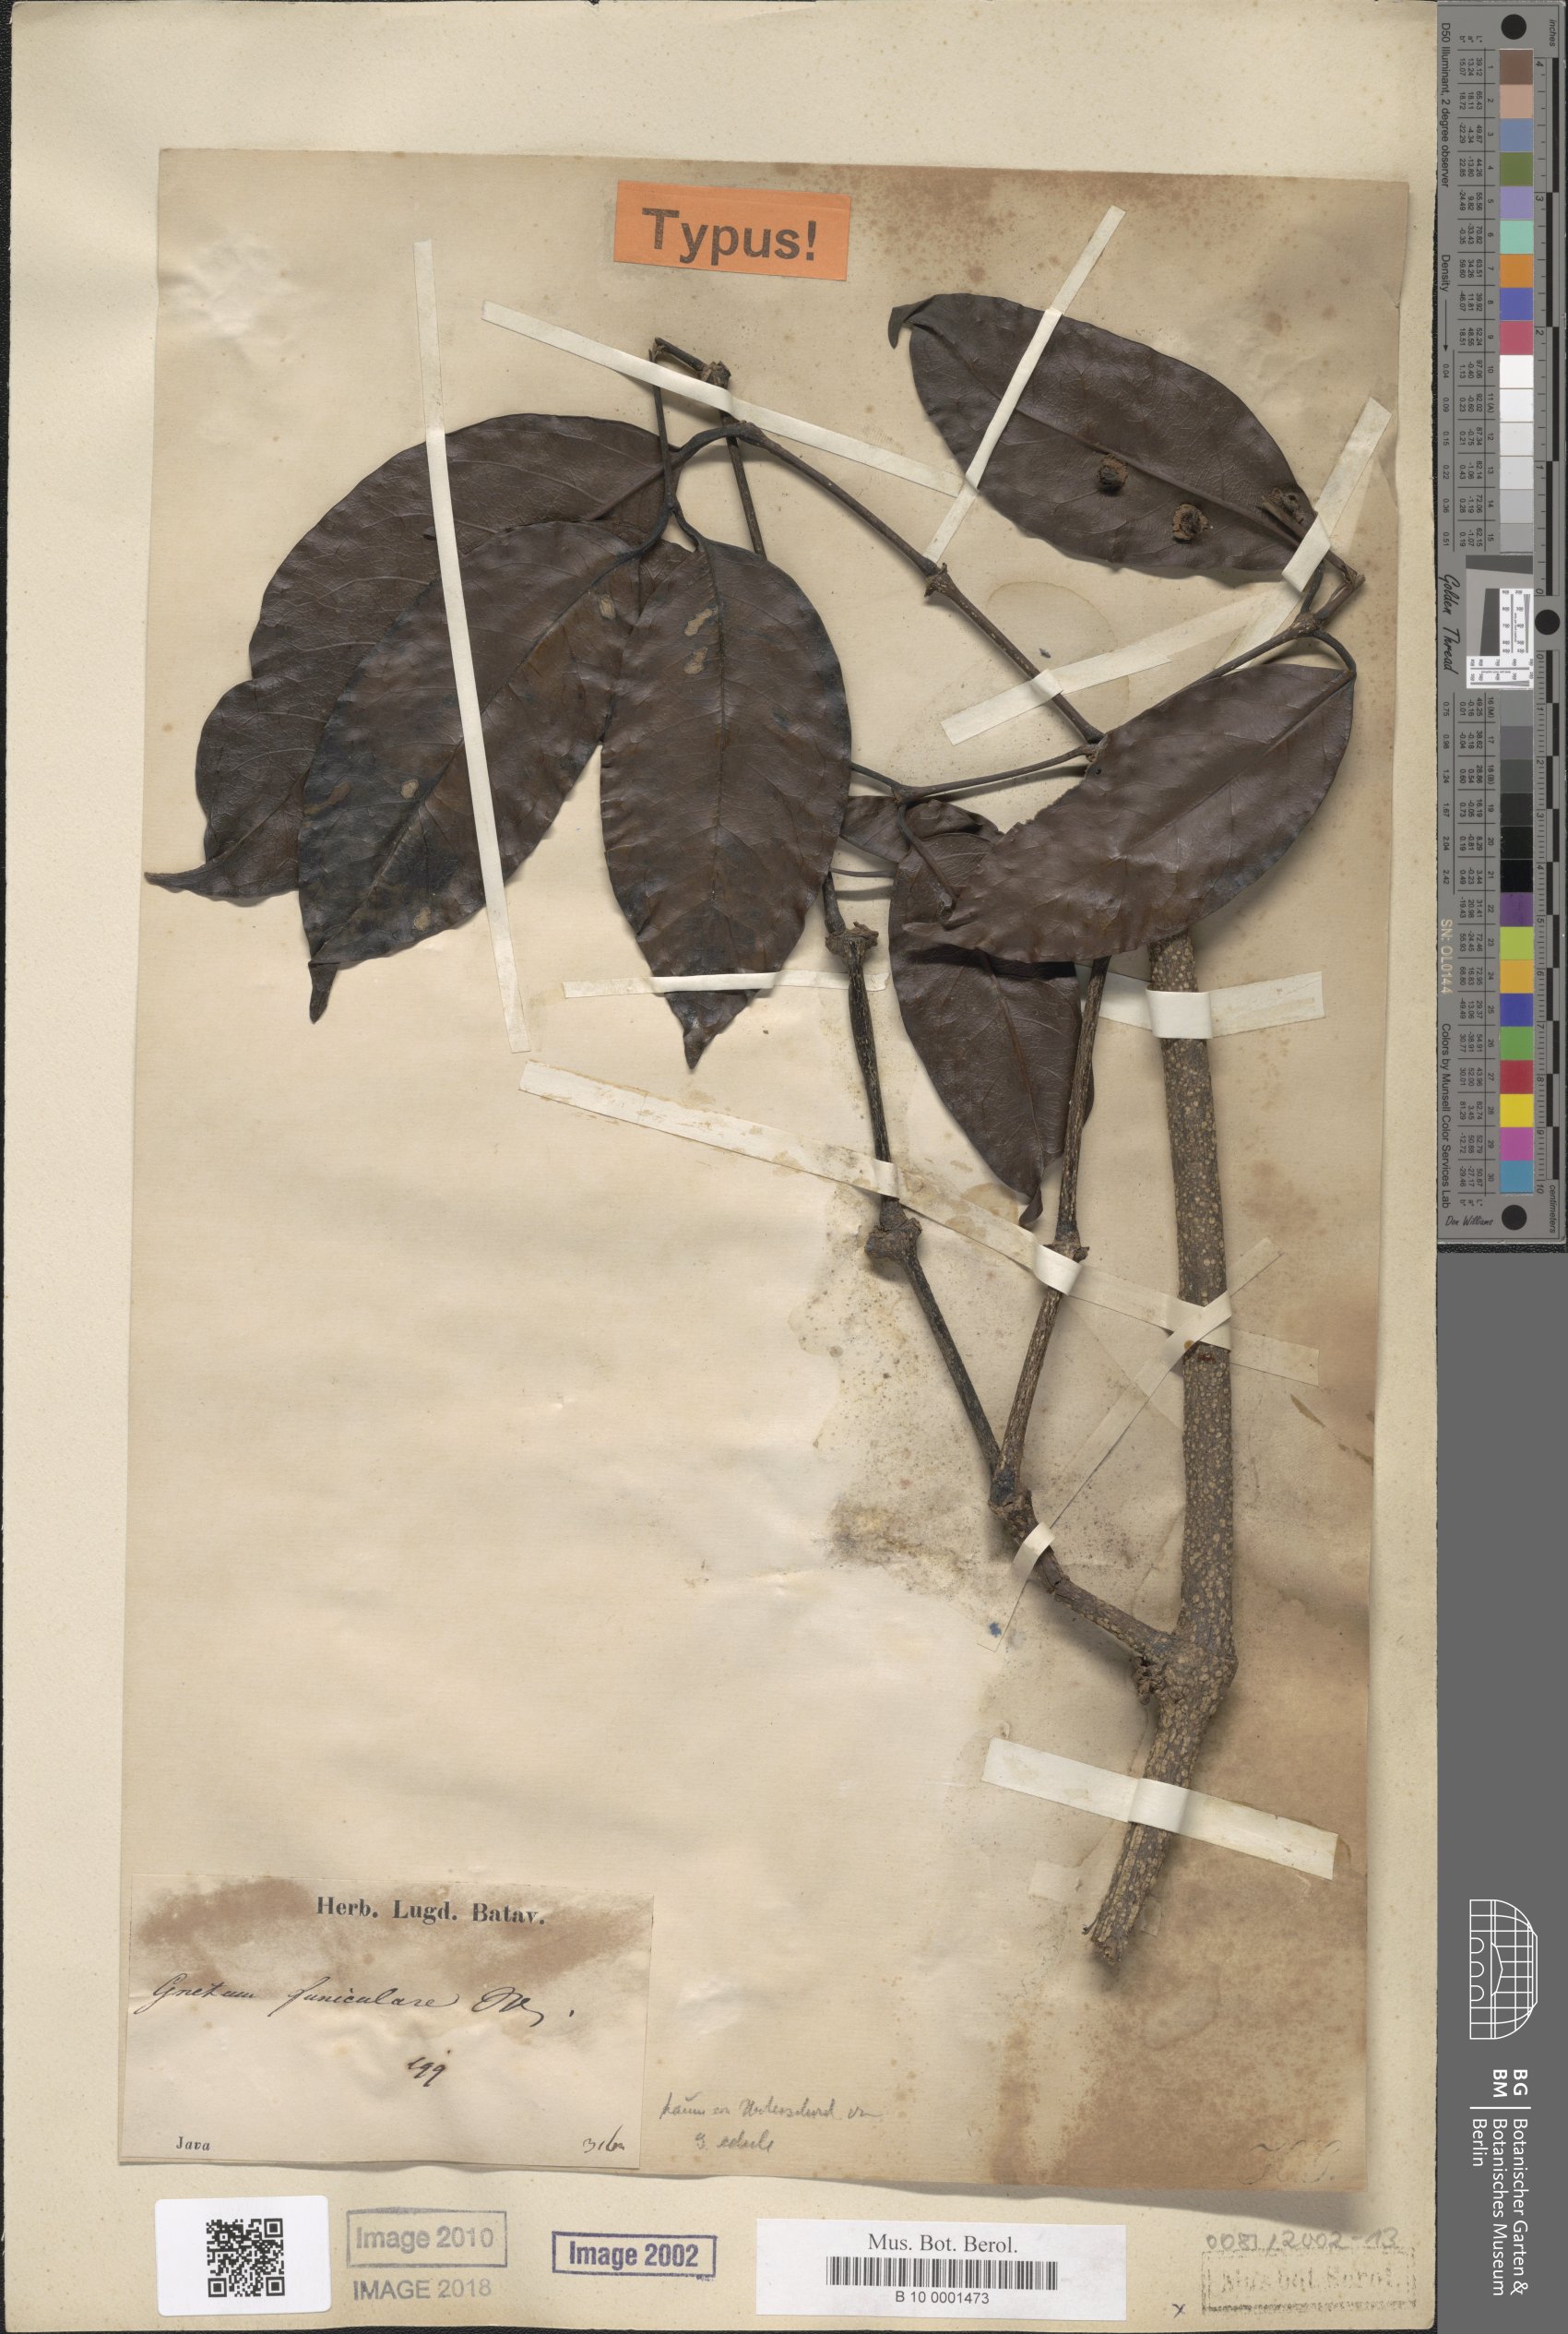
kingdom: Plantae
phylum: Tracheophyta
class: Gnetopsida
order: Gnetales
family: Gnetaceae
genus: Gnetum
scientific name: Gnetum funiculare
